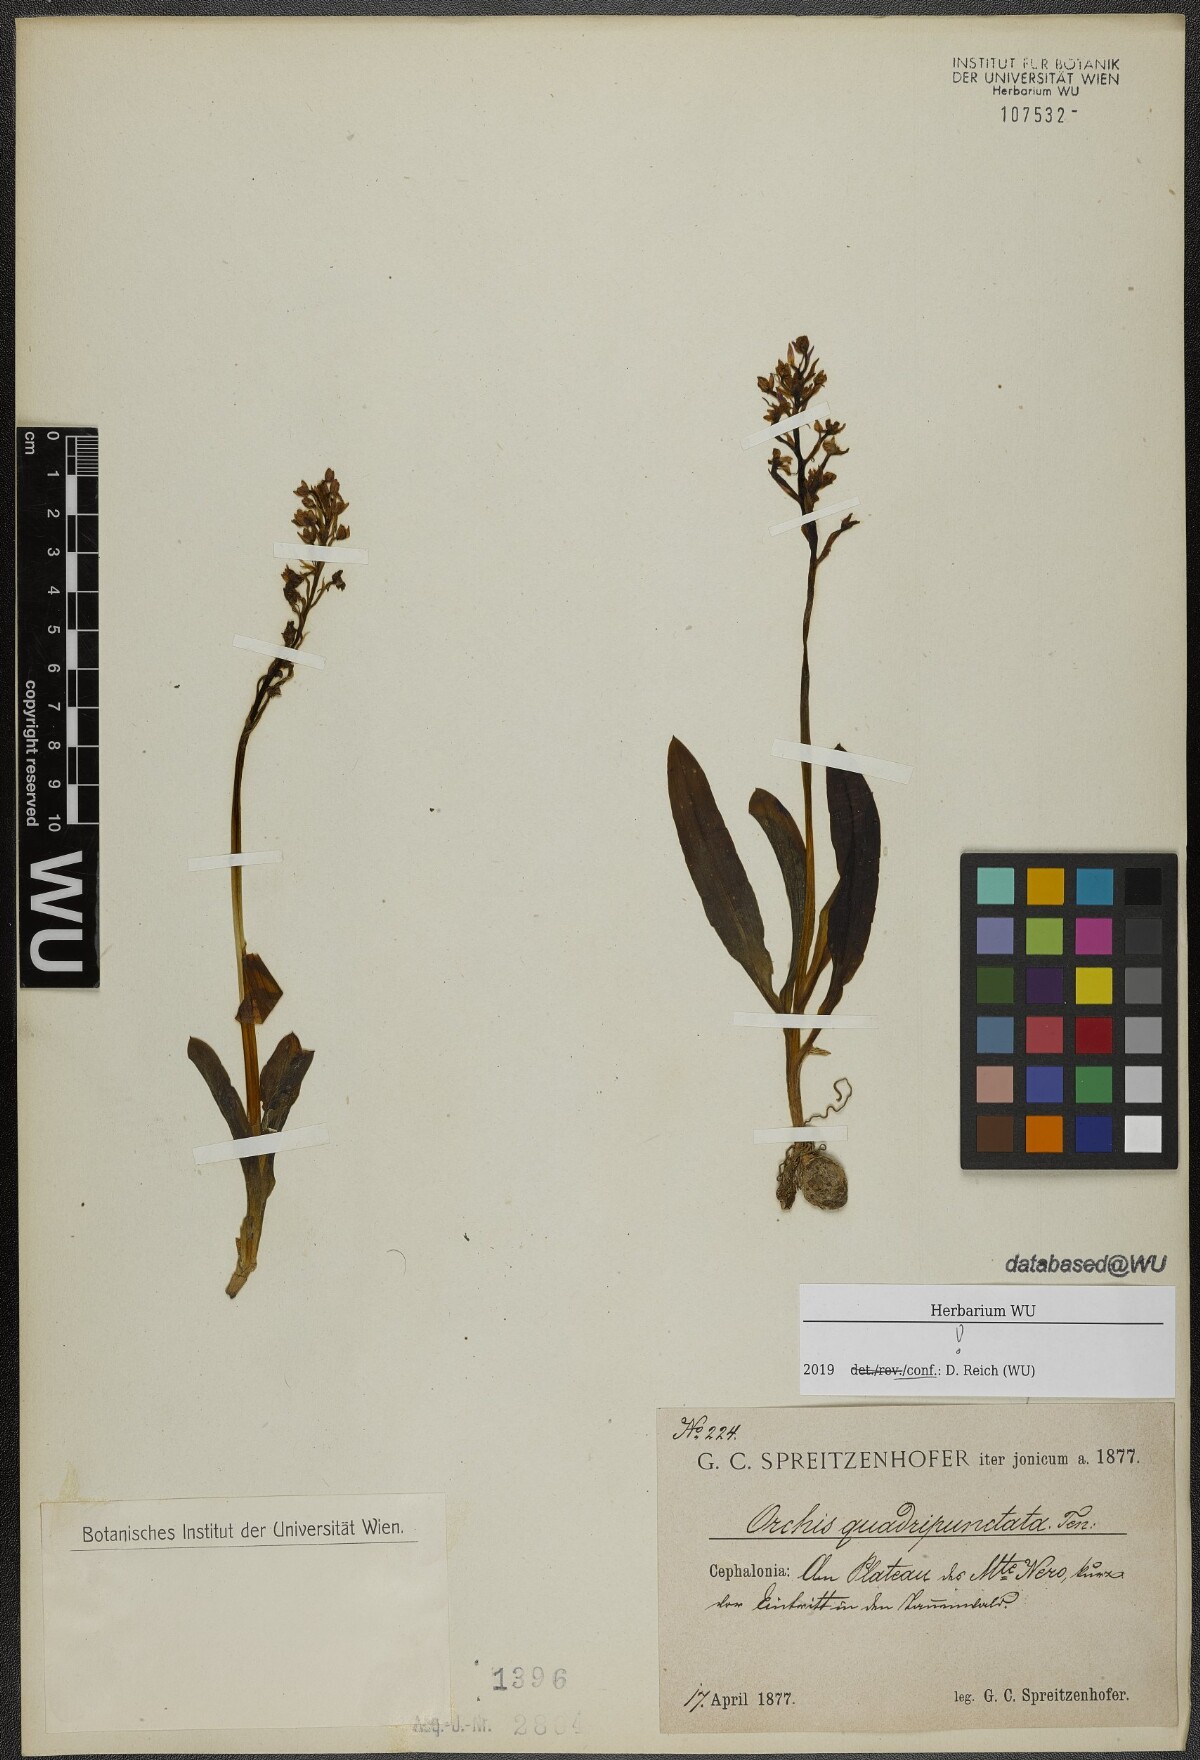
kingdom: Plantae
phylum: Tracheophyta
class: Liliopsida
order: Asparagales
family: Orchidaceae
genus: Orchis
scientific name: Orchis quadripunctata
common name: Four-spotted orchid
